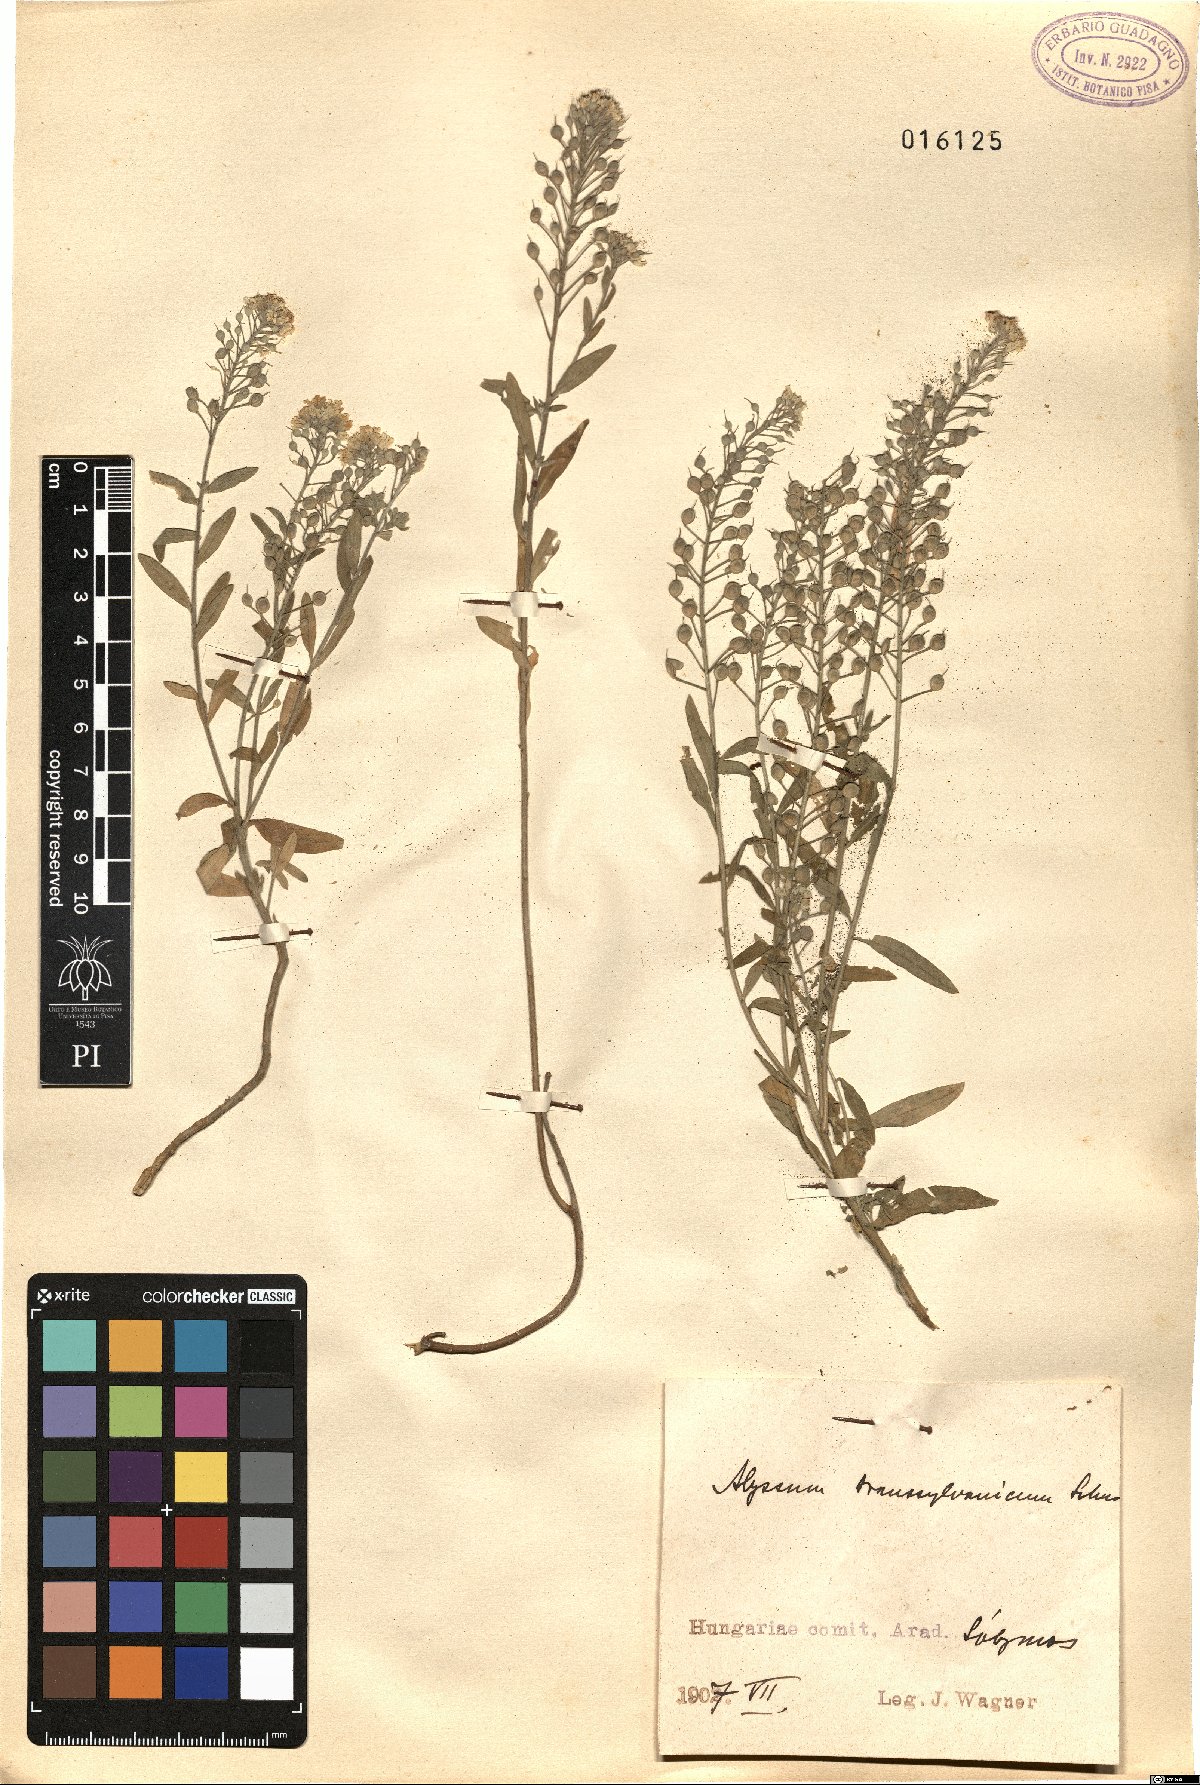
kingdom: Plantae
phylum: Tracheophyta
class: Magnoliopsida
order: Brassicales
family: Brassicaceae
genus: Alyssum
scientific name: Alyssum repens
